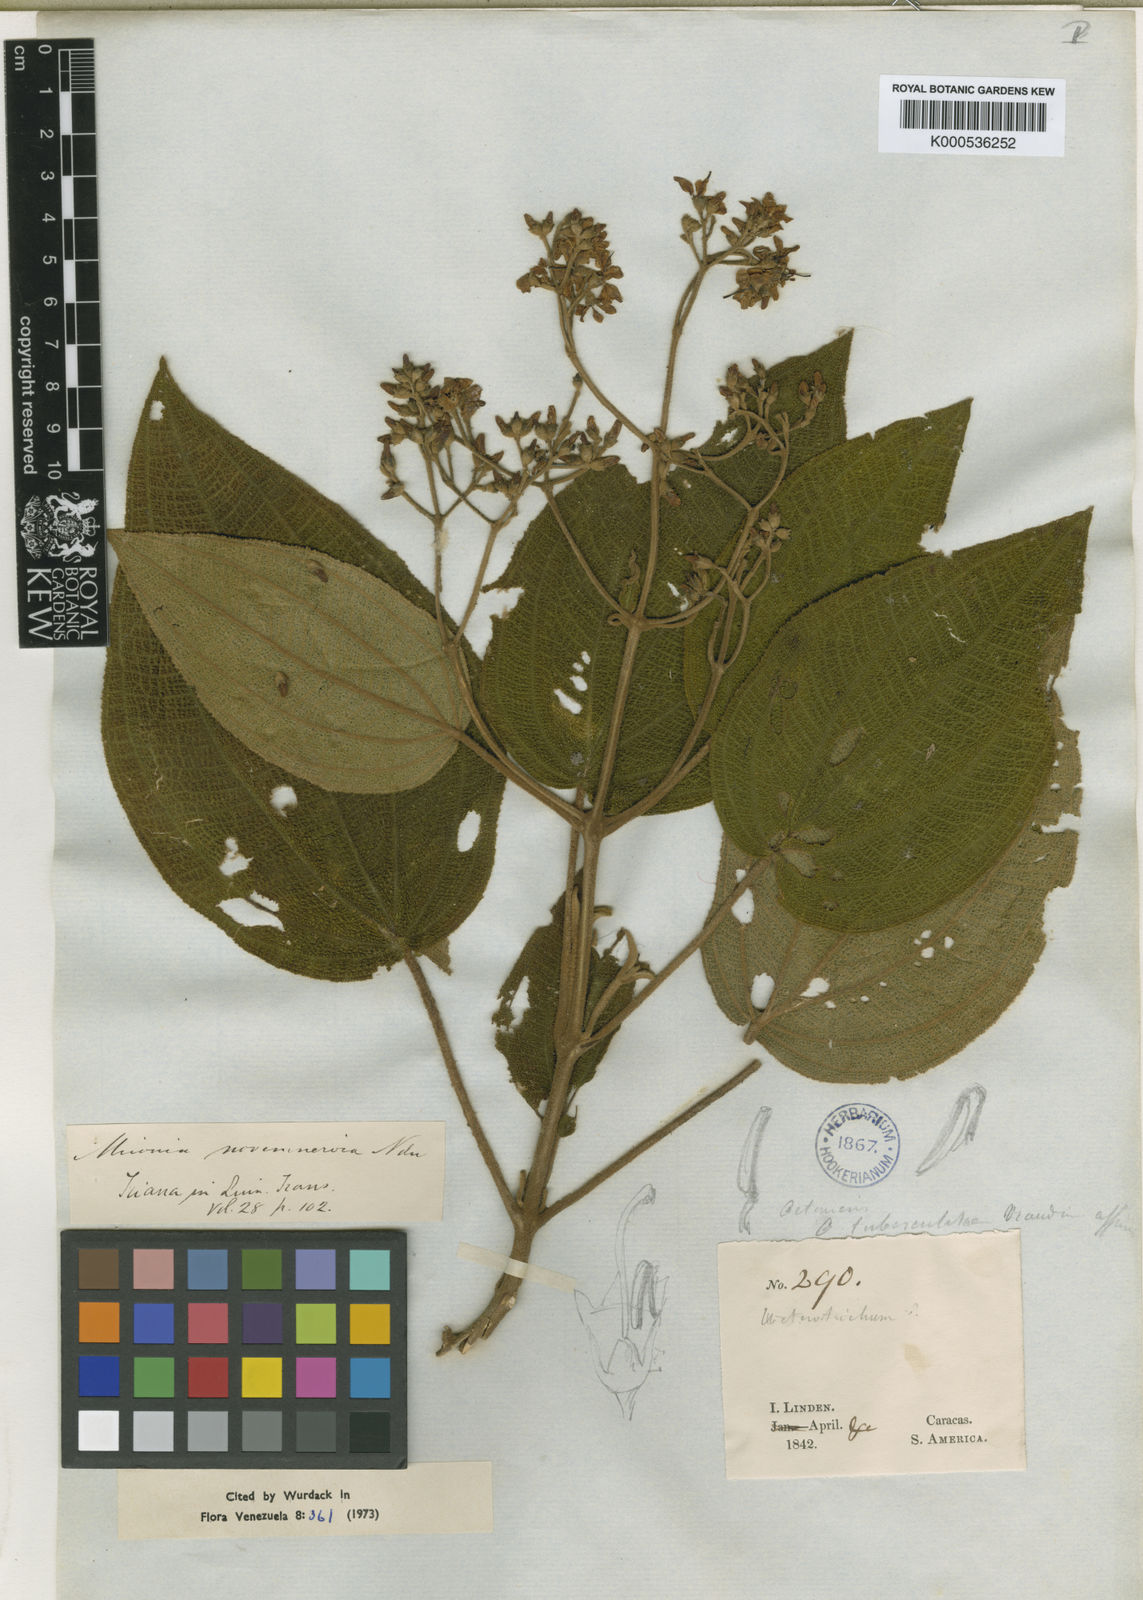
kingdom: Plantae
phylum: Tracheophyta
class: Magnoliopsida
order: Myrtales
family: Melastomataceae
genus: Miconia
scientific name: Miconia novemnervia
